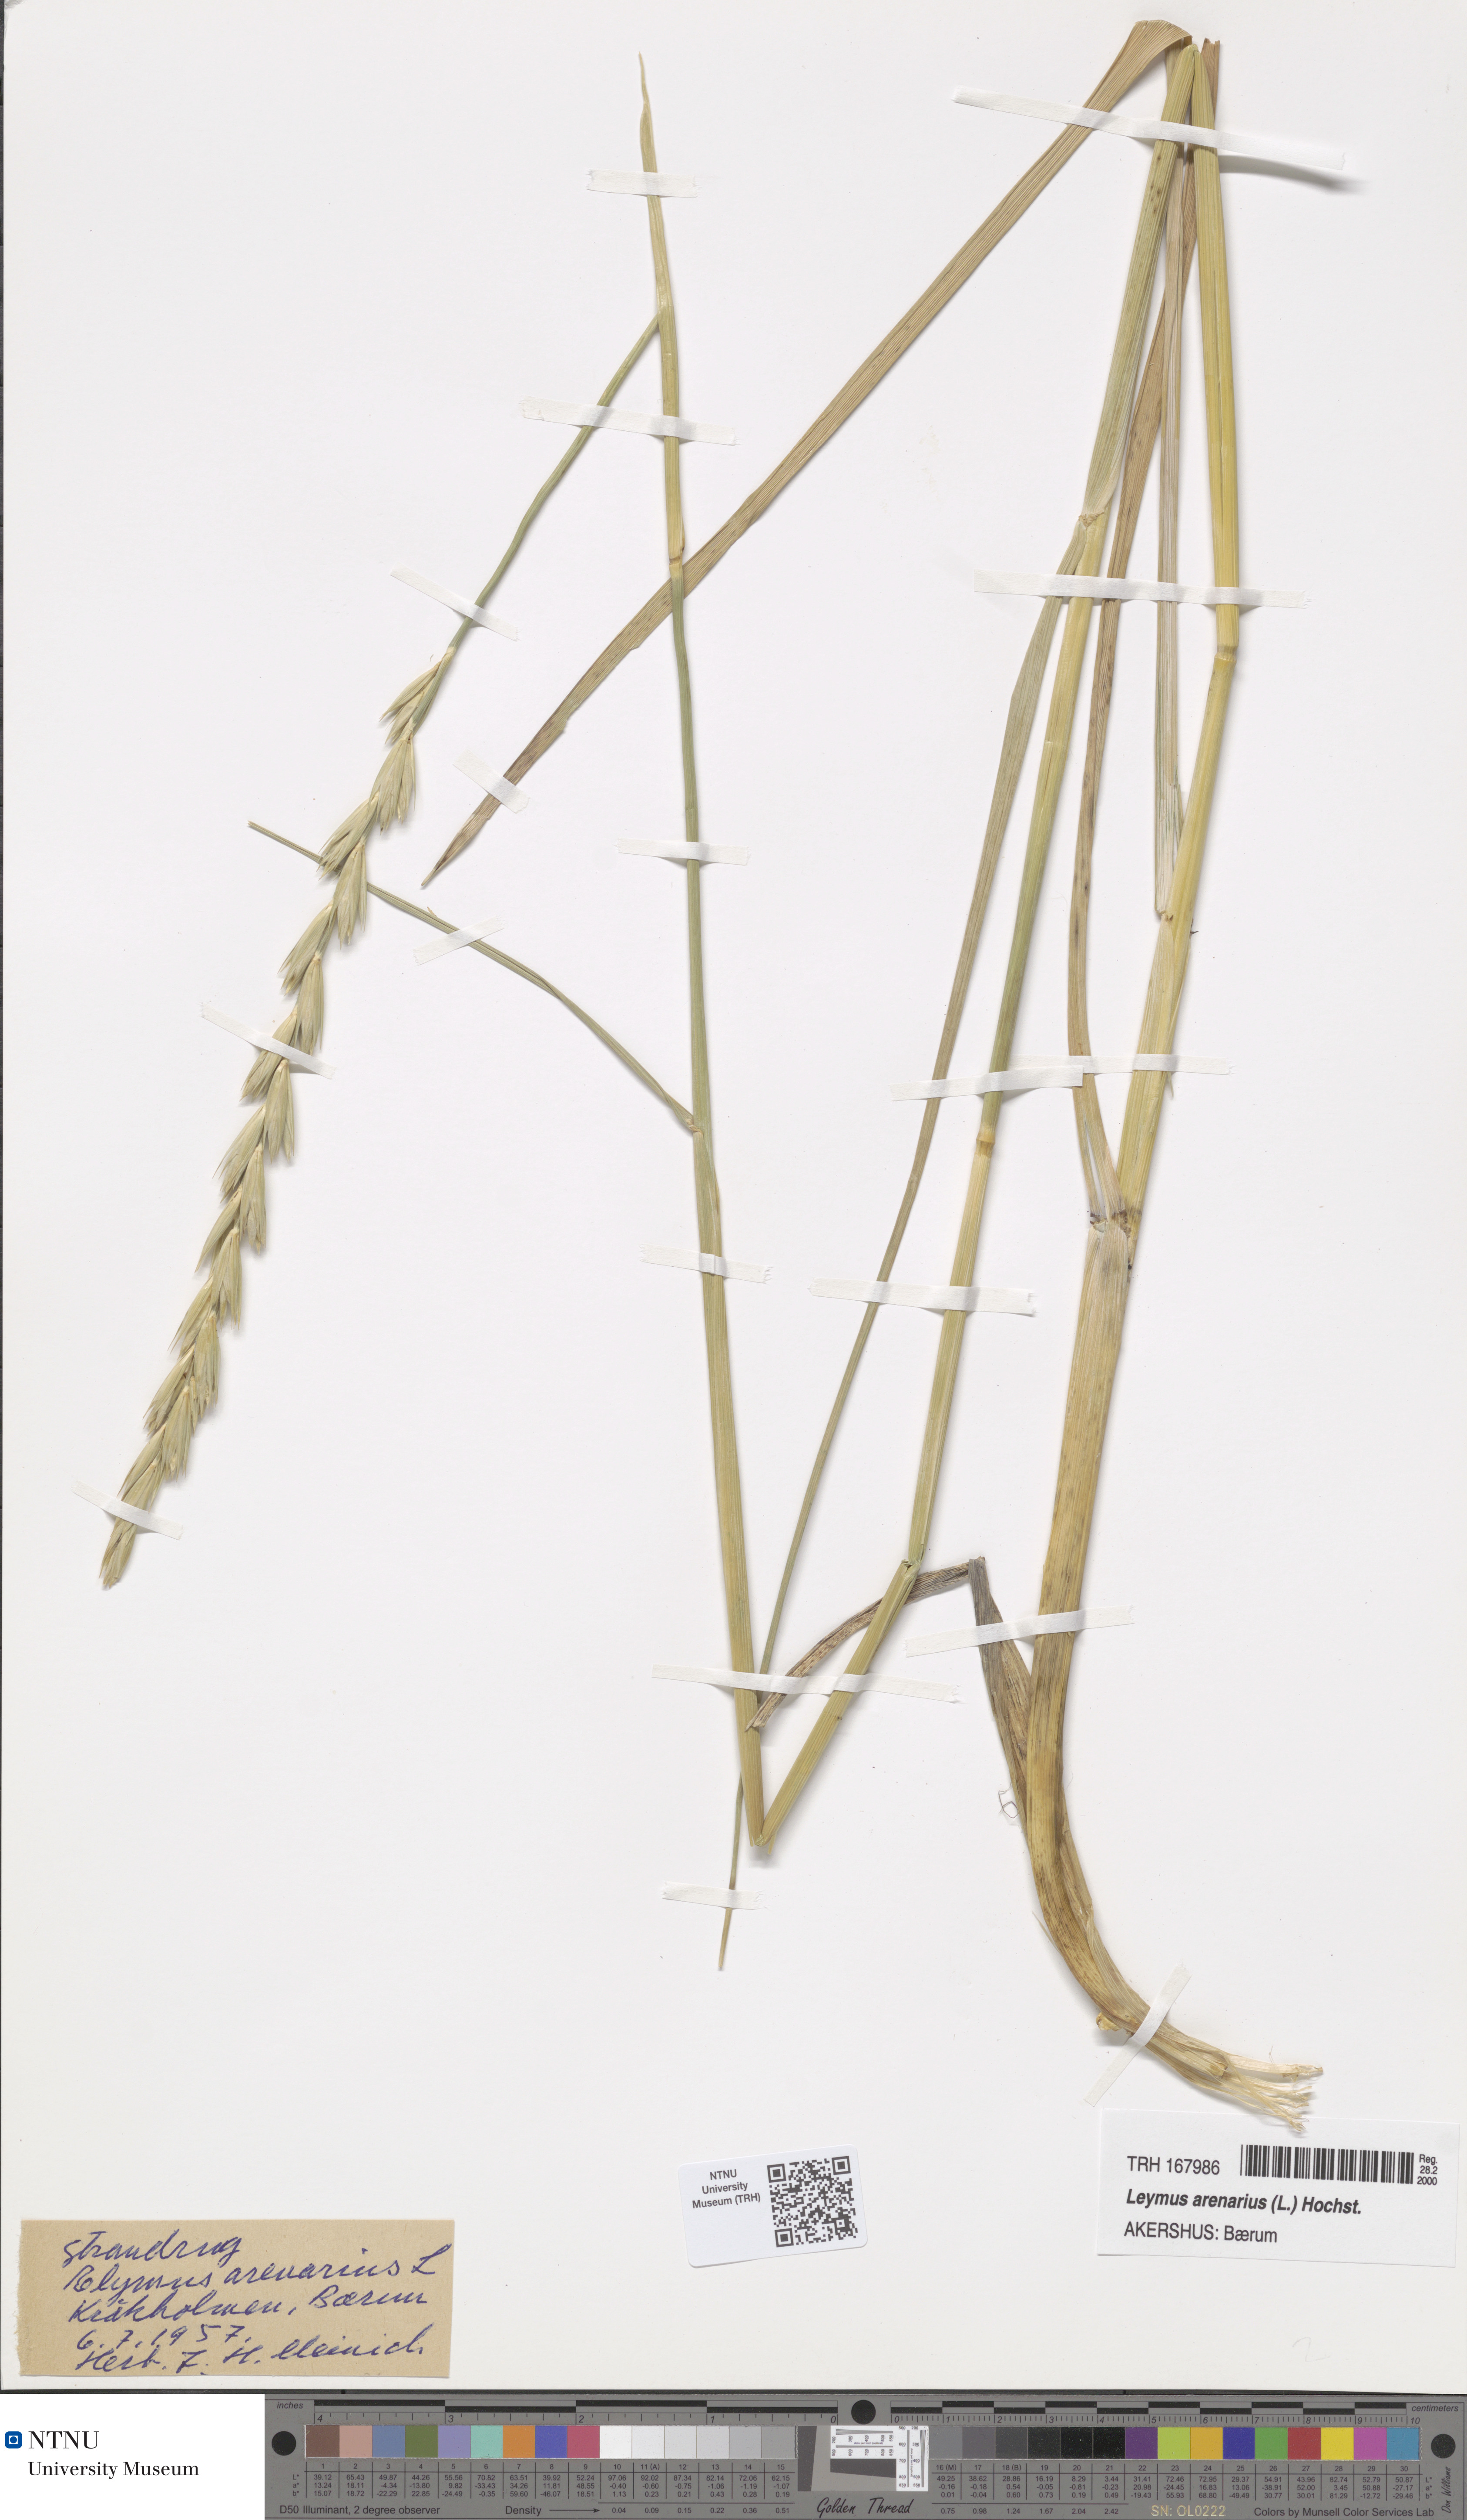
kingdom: Plantae
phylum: Tracheophyta
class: Liliopsida
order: Poales
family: Poaceae
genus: Leymus
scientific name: Leymus arenarius
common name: Lyme-grass
